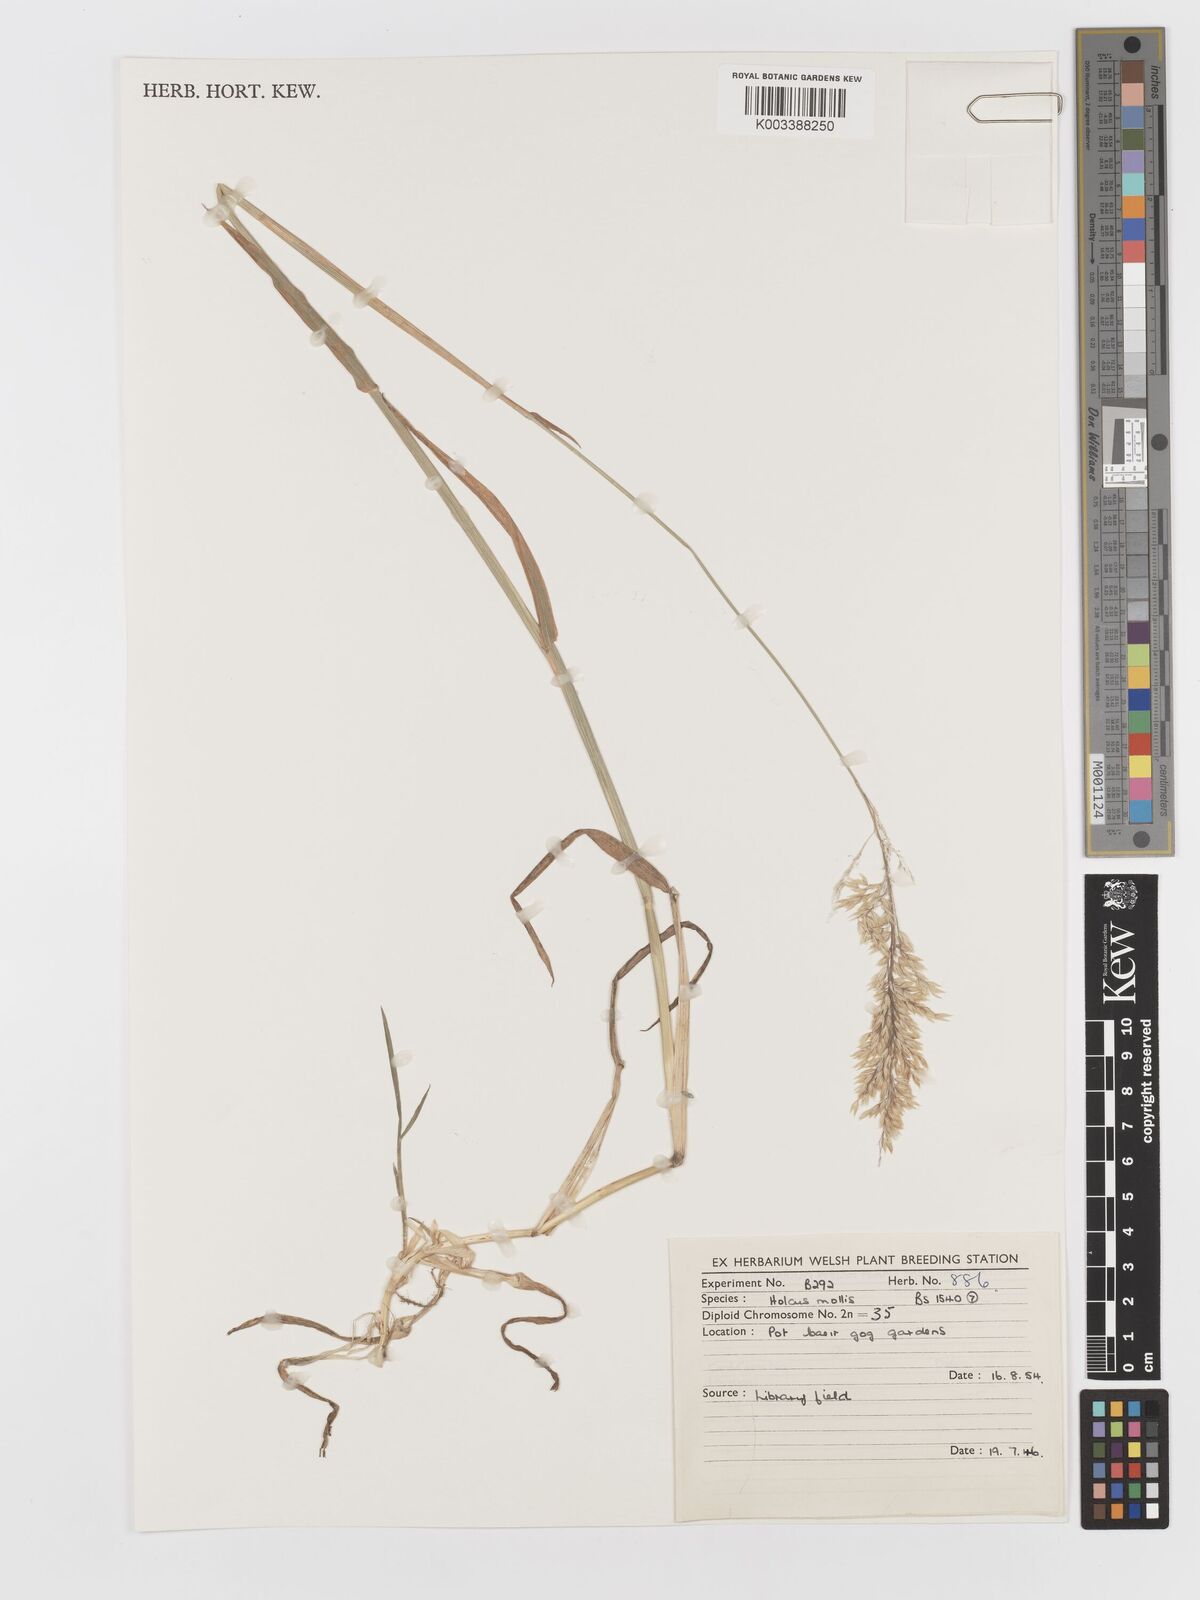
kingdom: Plantae
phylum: Tracheophyta
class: Liliopsida
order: Poales
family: Poaceae
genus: Holcus
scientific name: Holcus mollis
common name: Creeping velvetgrass
